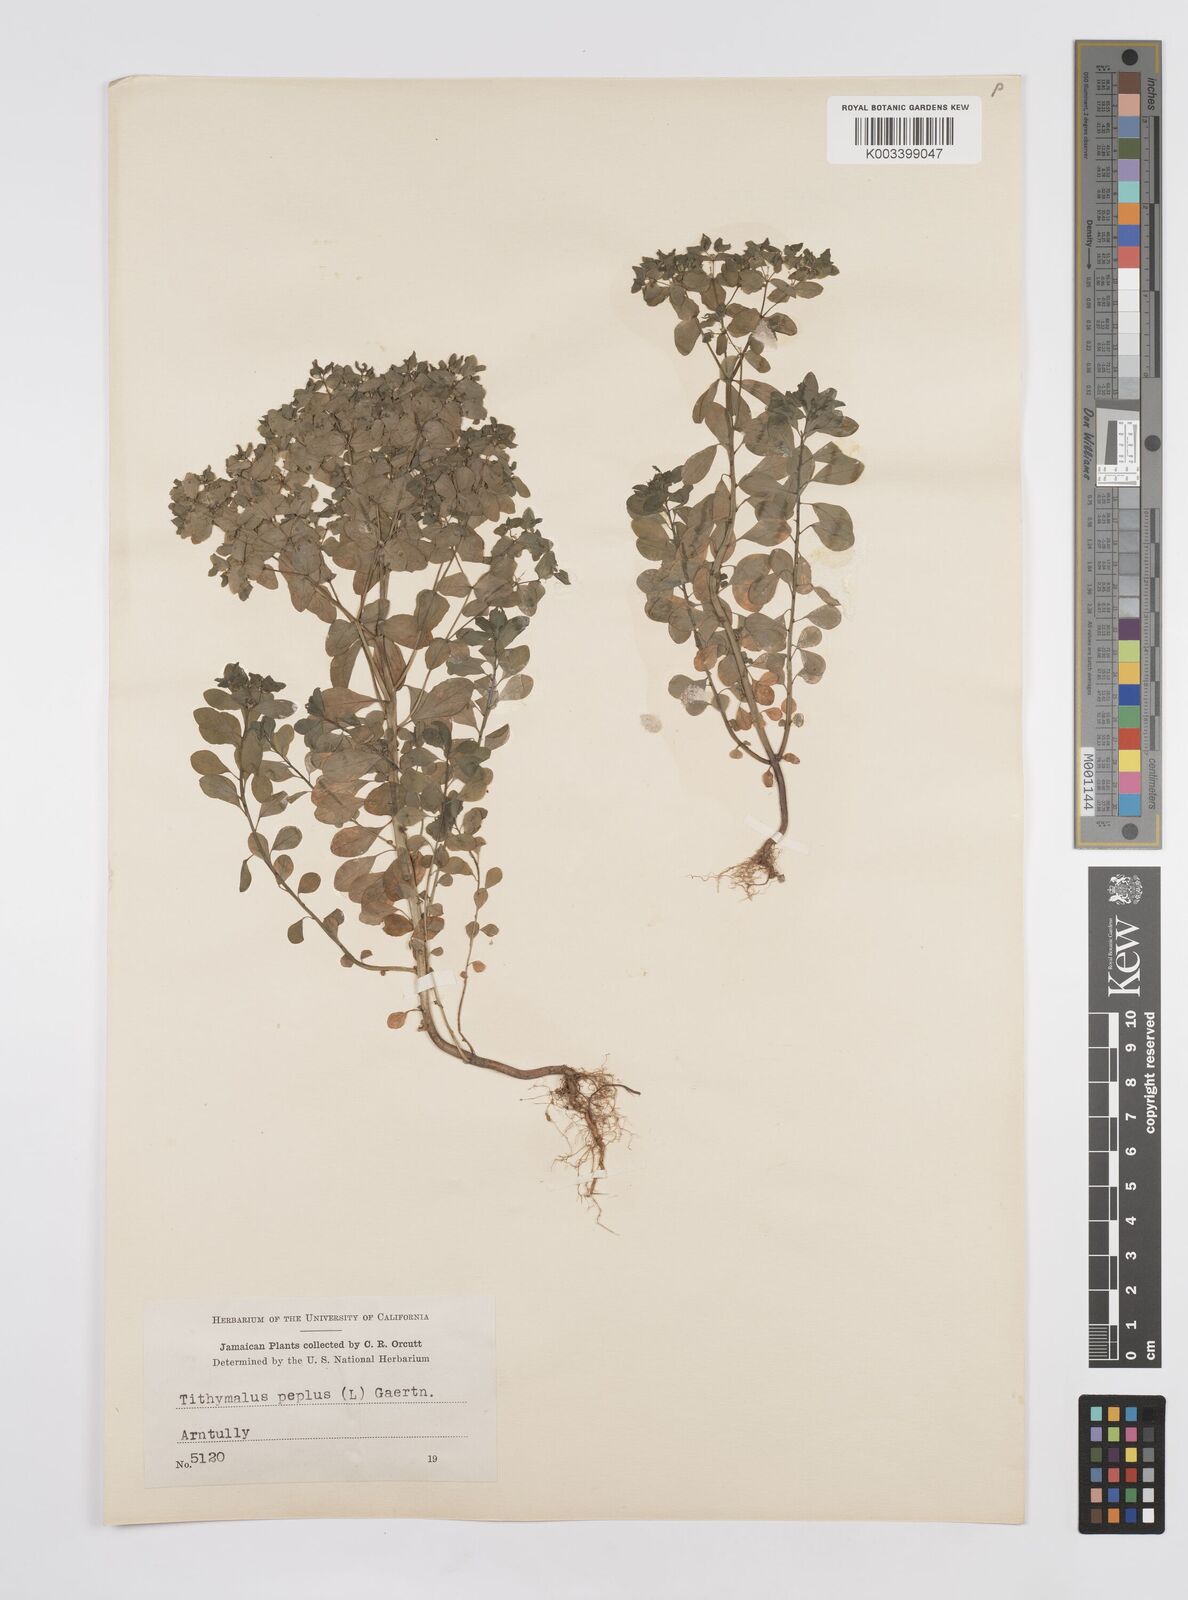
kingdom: Plantae
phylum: Tracheophyta
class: Magnoliopsida
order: Malpighiales
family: Euphorbiaceae
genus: Euphorbia
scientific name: Euphorbia peplus
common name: Petty spurge
